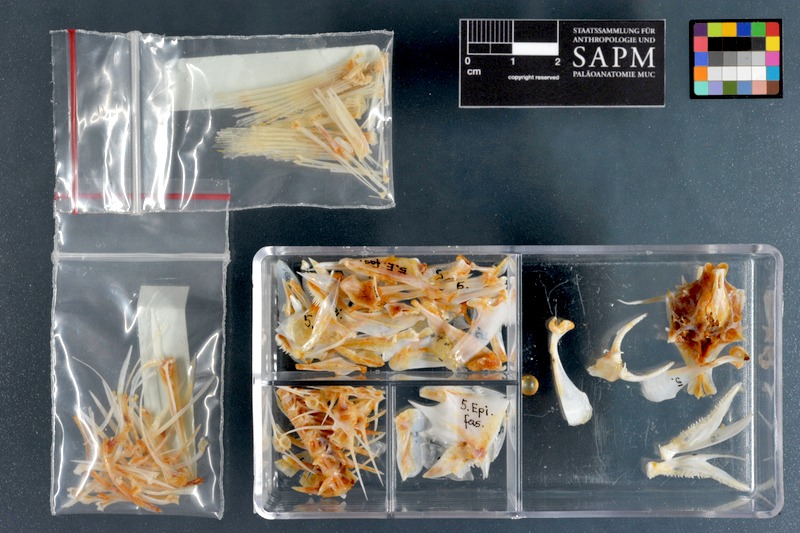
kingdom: Animalia
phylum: Chordata
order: Perciformes
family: Serranidae
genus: Epinephelus
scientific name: Epinephelus fasciatus
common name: Blacktip grouper
